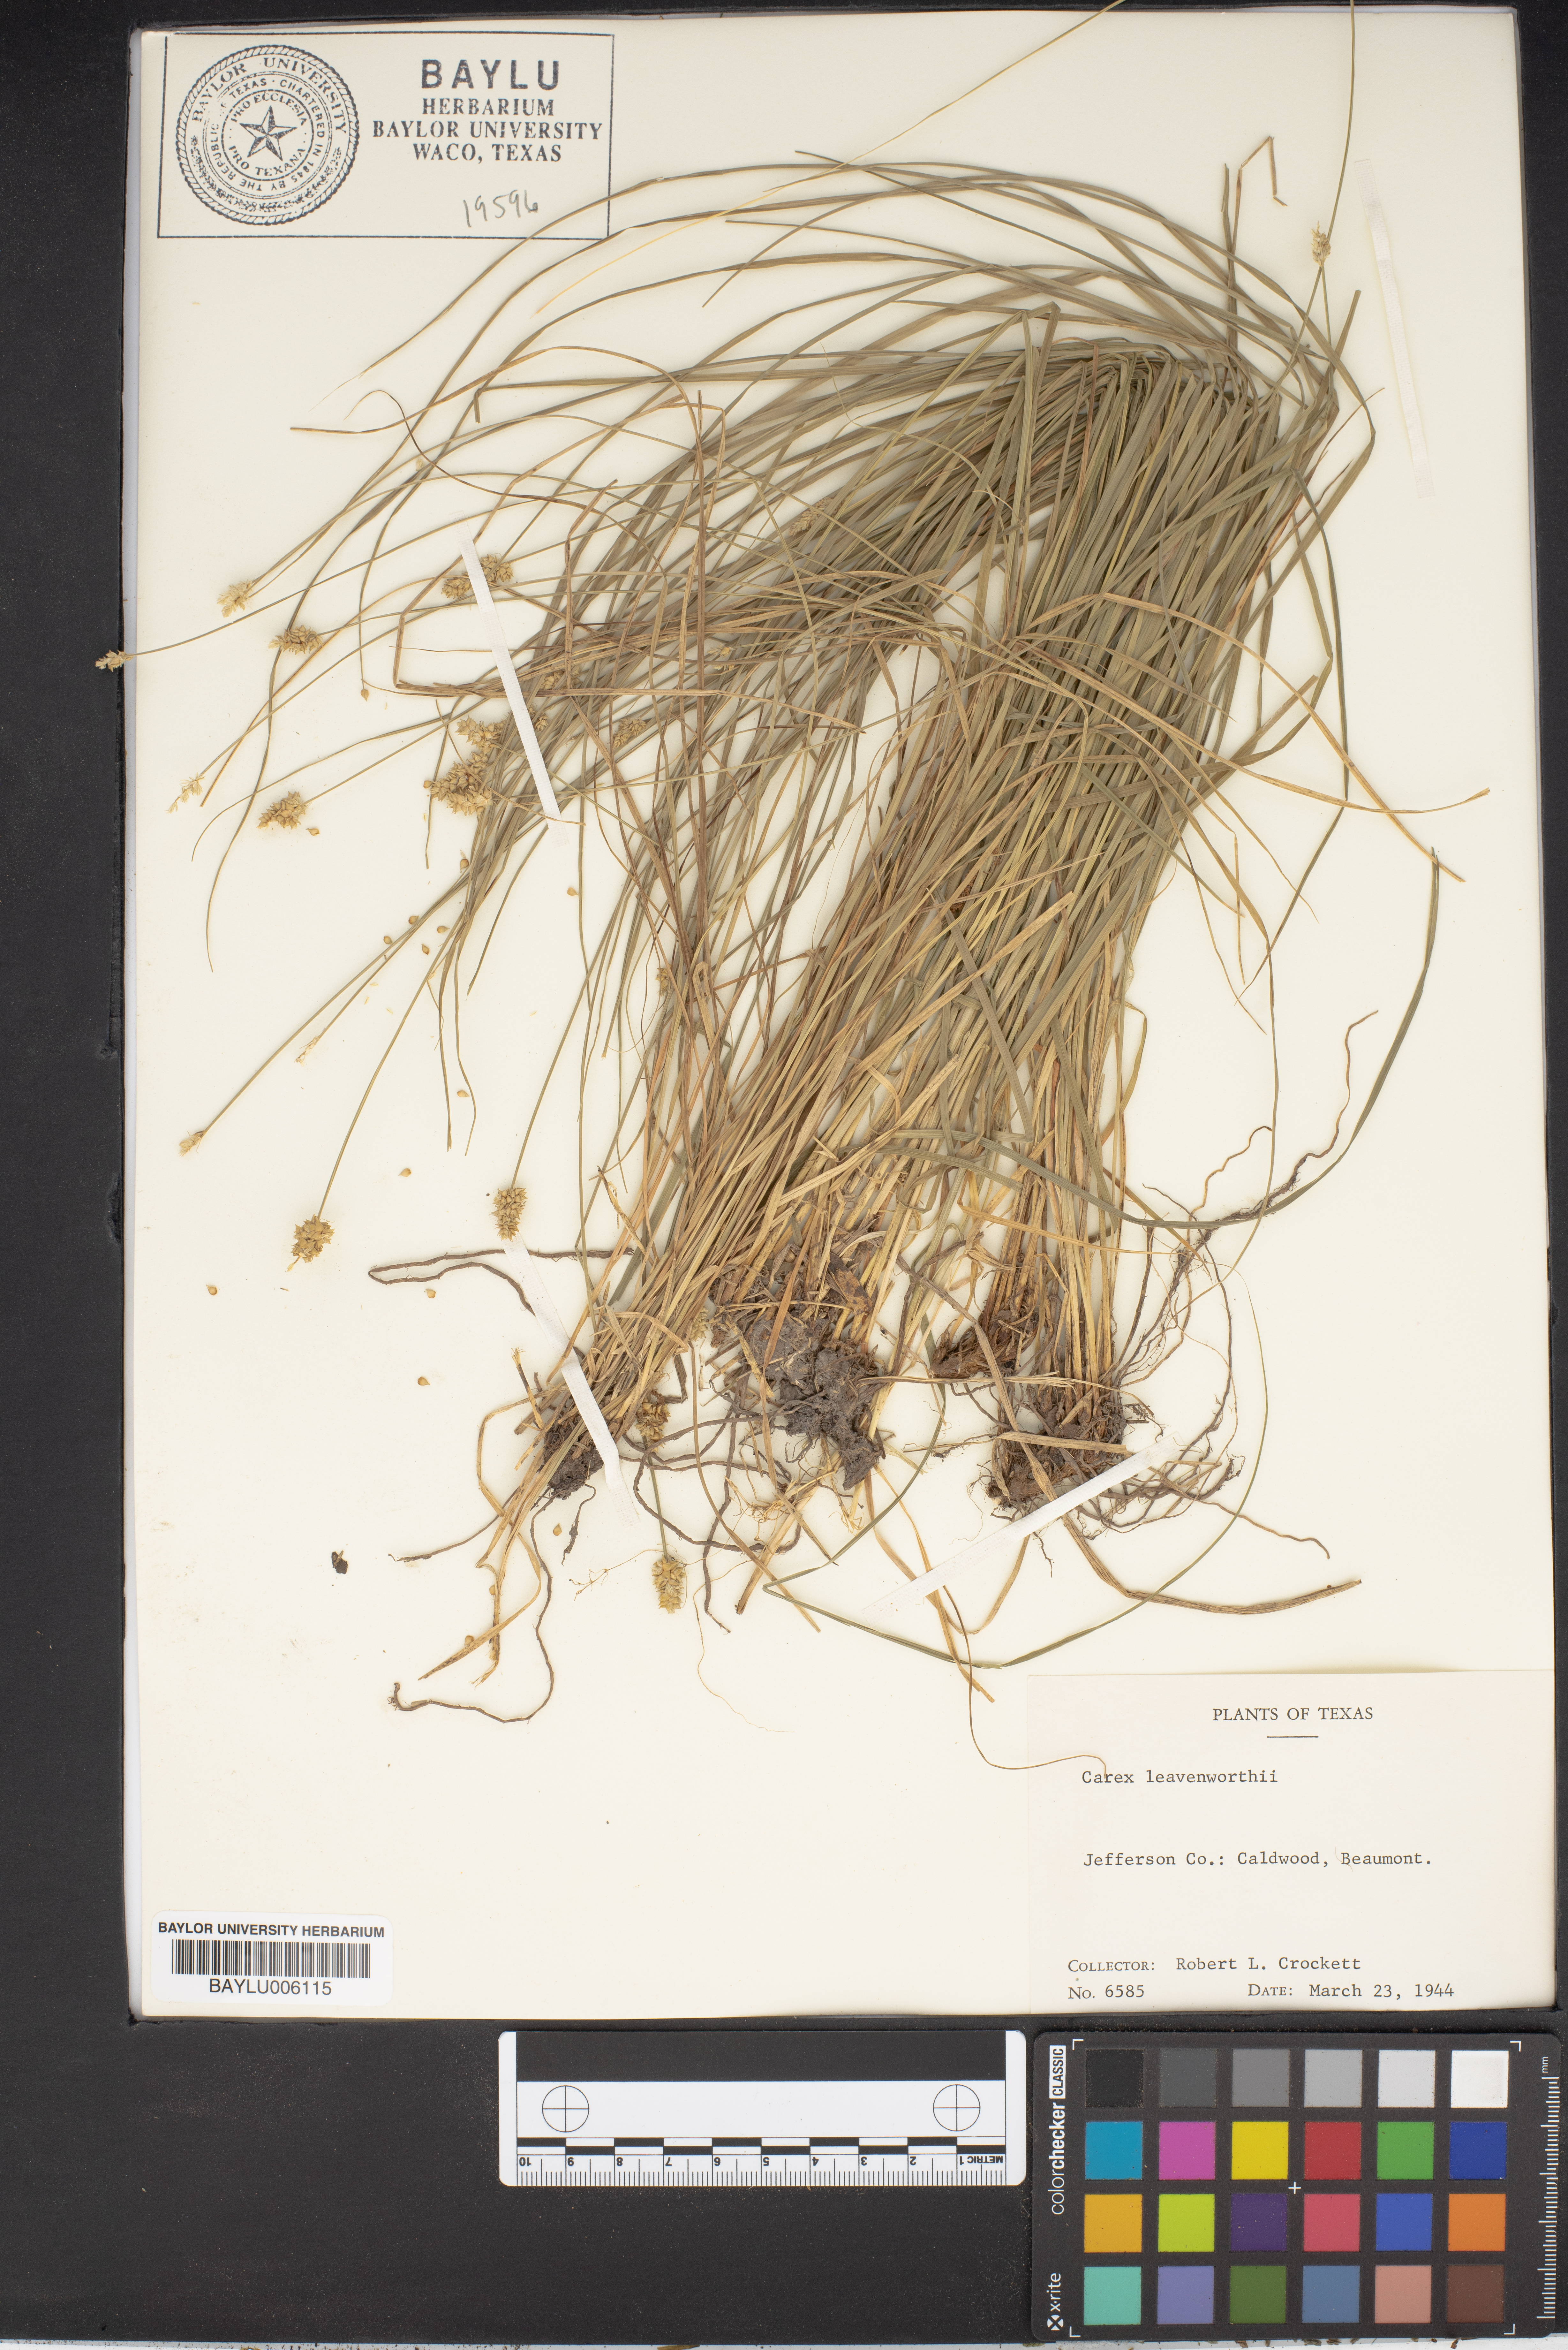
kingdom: Plantae
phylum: Tracheophyta
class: Liliopsida
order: Poales
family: Cyperaceae
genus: Carex
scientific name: Carex leavenworthii
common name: Leavenworth's bracted sedge
